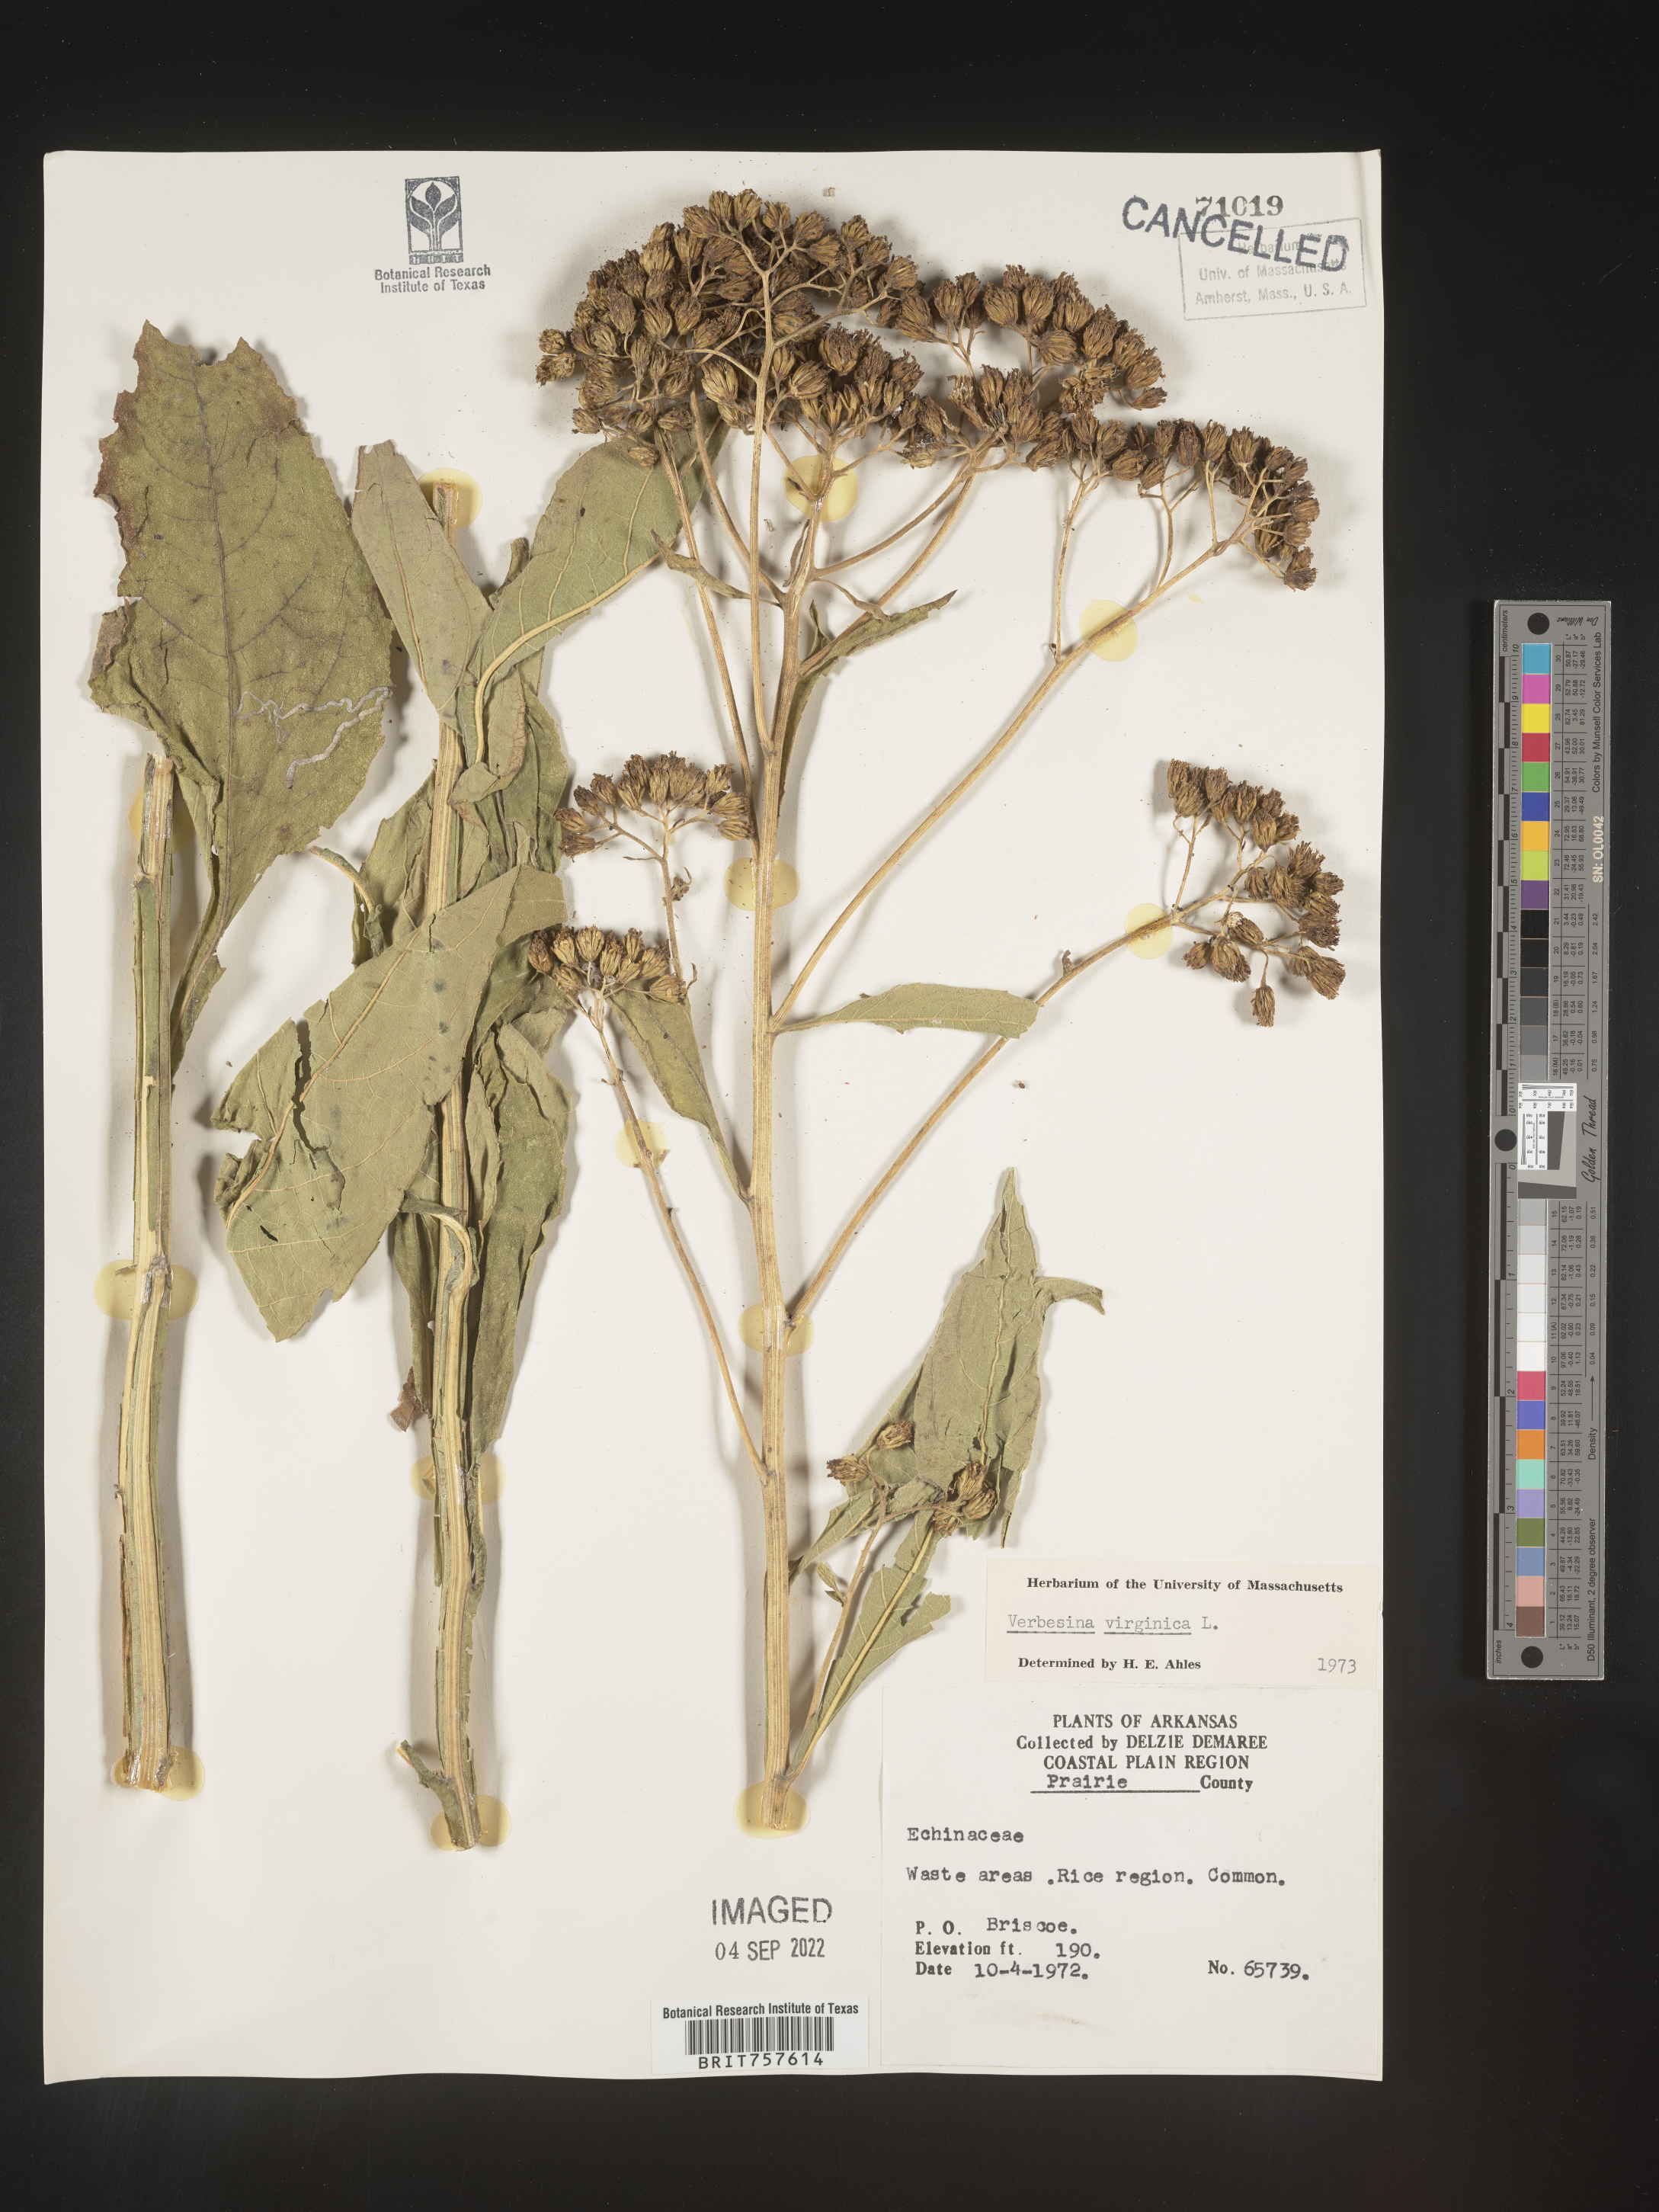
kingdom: Plantae
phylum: Tracheophyta
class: Magnoliopsida
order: Asterales
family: Asteraceae
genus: Verbesina
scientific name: Verbesina virginica
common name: Frostweed
